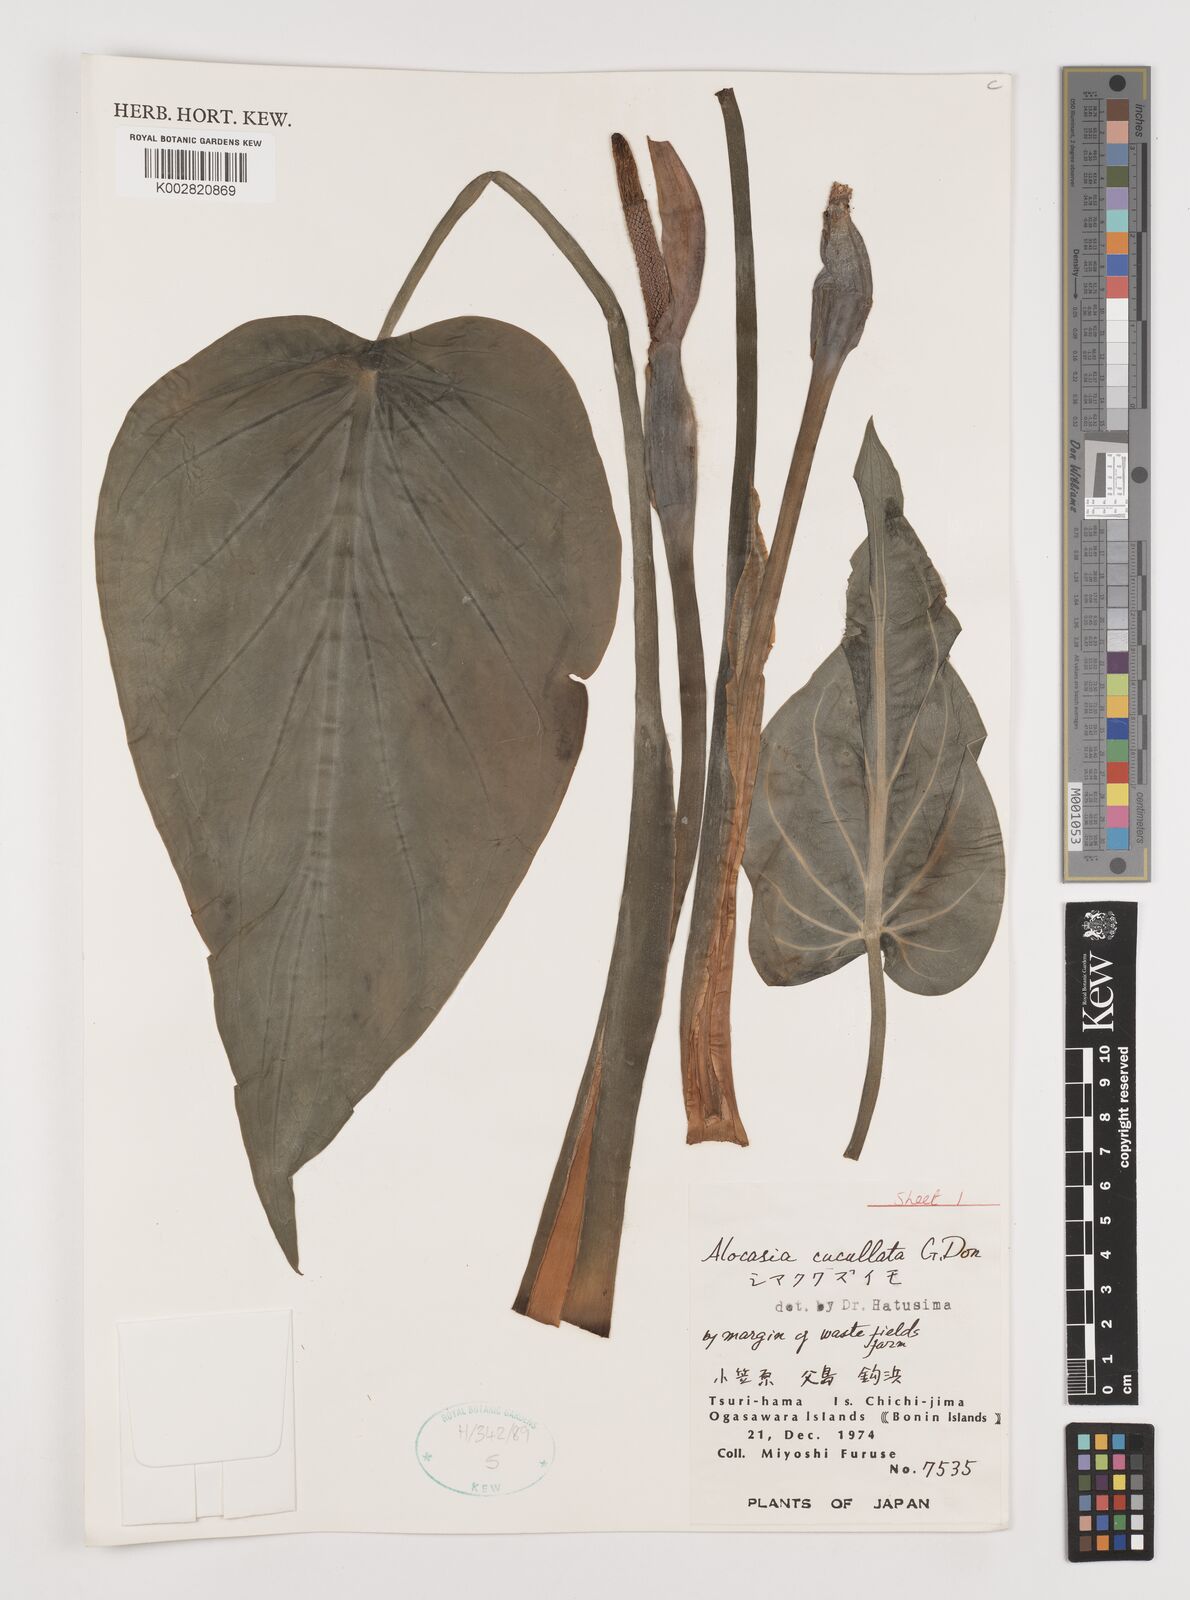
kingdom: Plantae
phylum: Tracheophyta
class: Liliopsida
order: Alismatales
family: Araceae
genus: Alocasia
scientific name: Alocasia cucullata
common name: Buddha's hand
